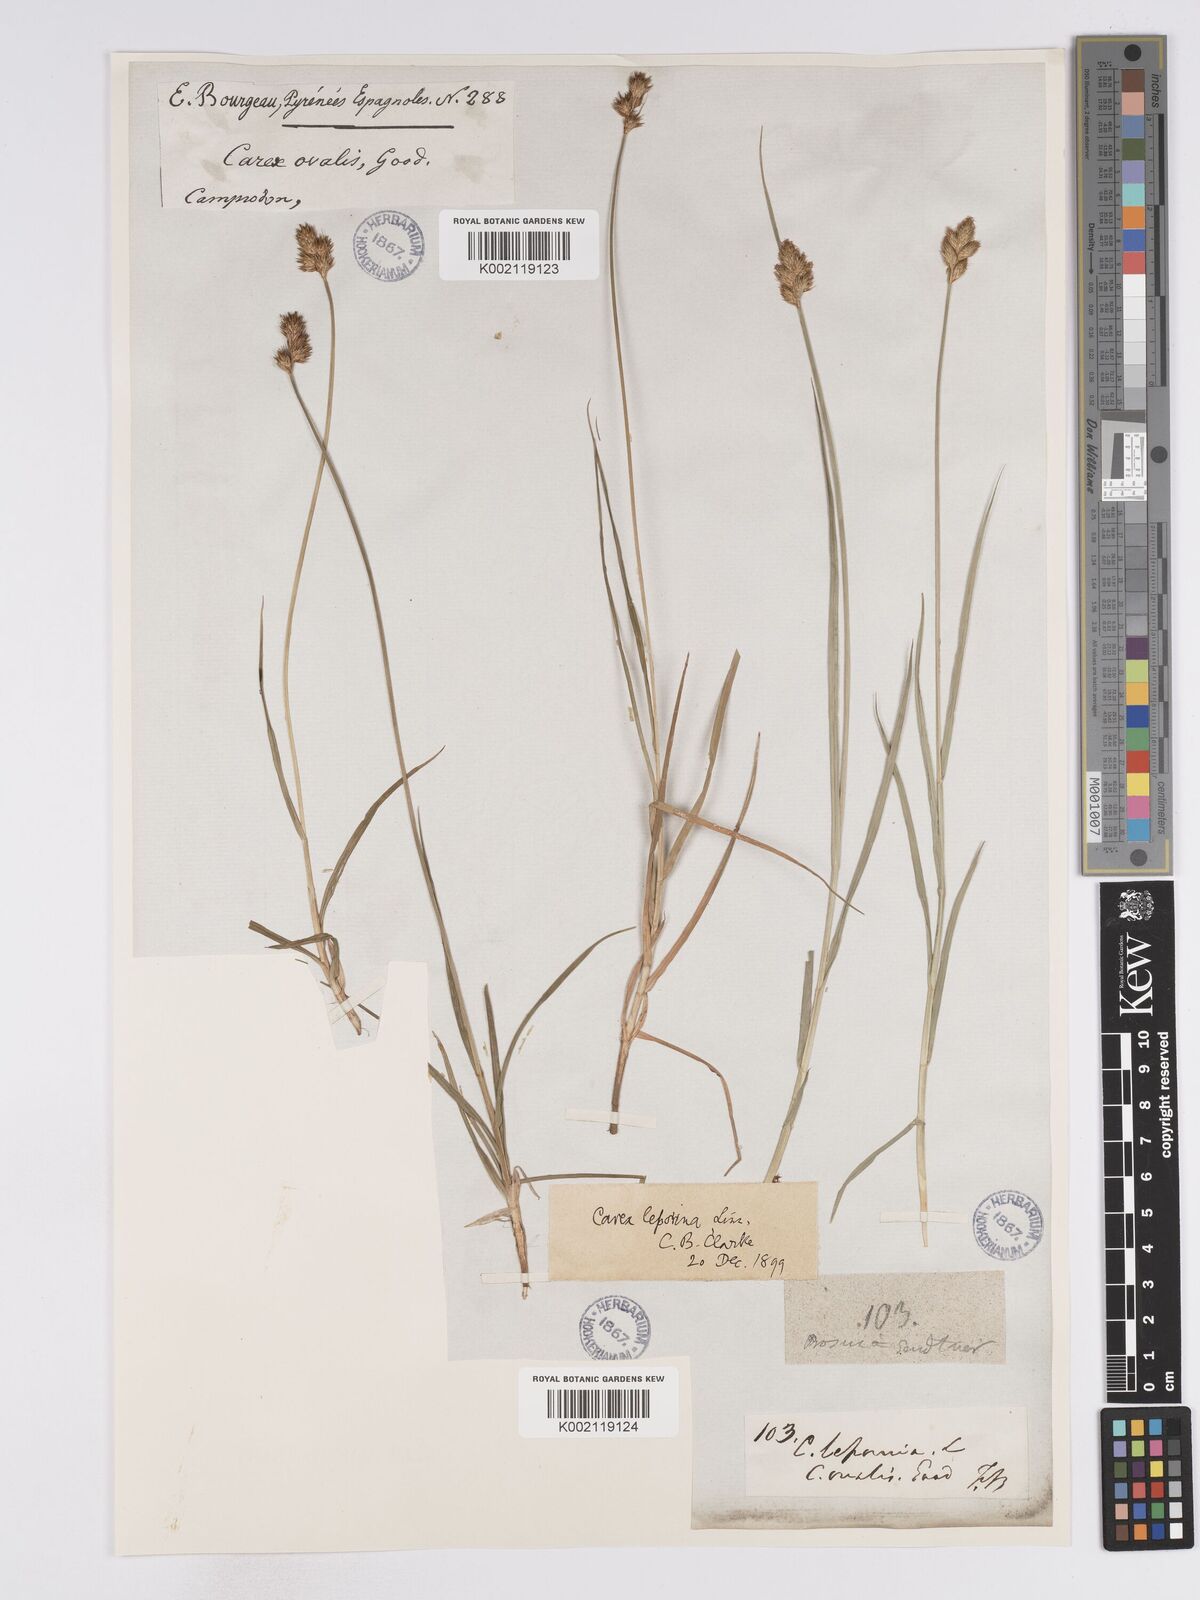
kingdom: Plantae
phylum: Tracheophyta
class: Liliopsida
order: Poales
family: Cyperaceae
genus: Carex
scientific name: Carex leporina
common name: Oval sedge
